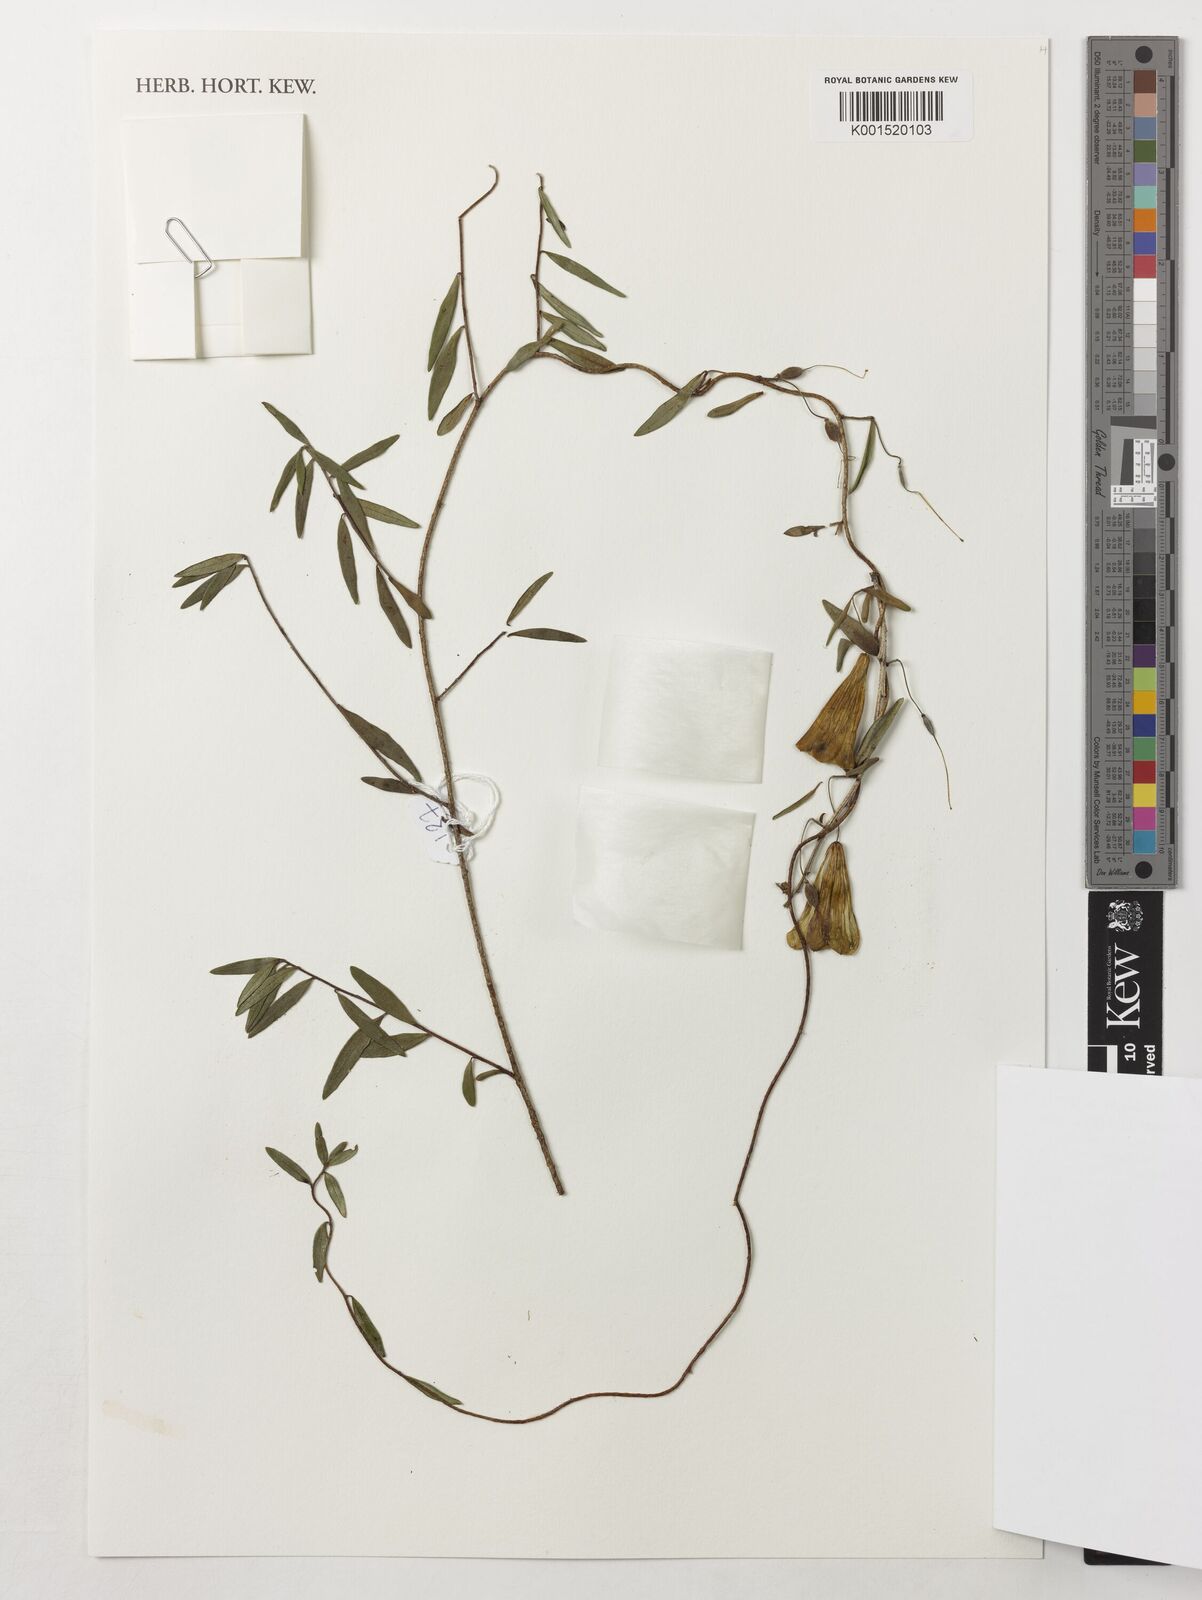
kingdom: Plantae
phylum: Tracheophyta
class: Magnoliopsida
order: Apiales
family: Pittosporaceae
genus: Billardiera
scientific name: Billardiera
